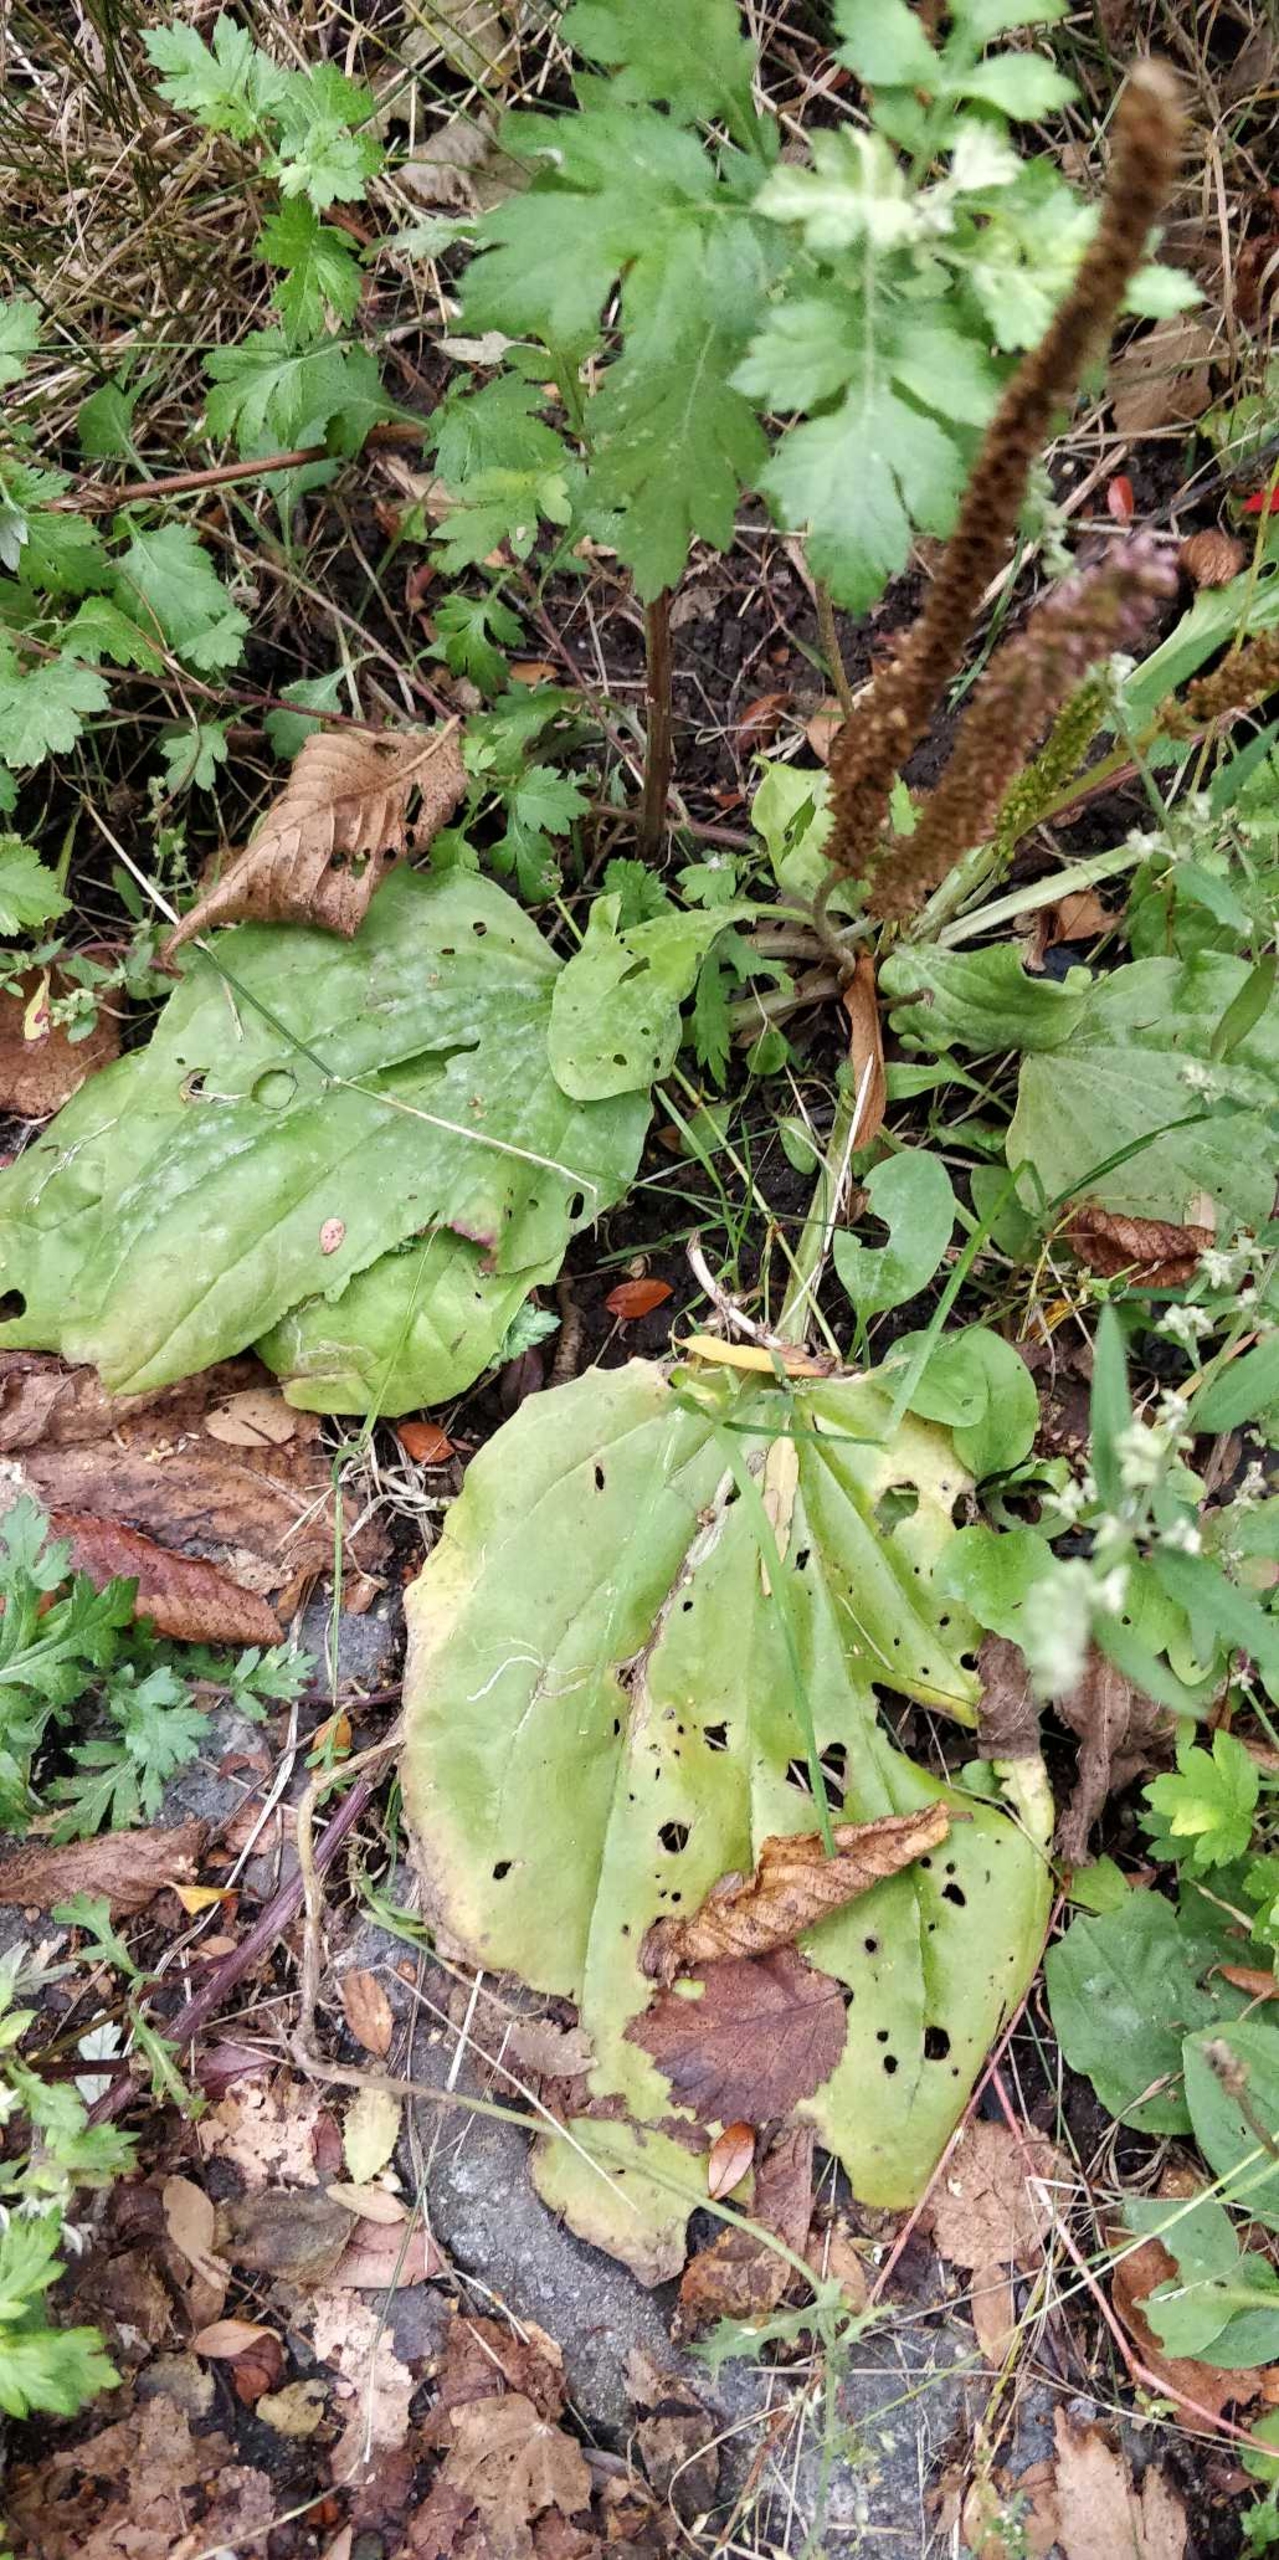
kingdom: Plantae
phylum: Tracheophyta
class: Magnoliopsida
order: Lamiales
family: Plantaginaceae
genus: Plantago
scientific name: Plantago major
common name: Glat vejbred
